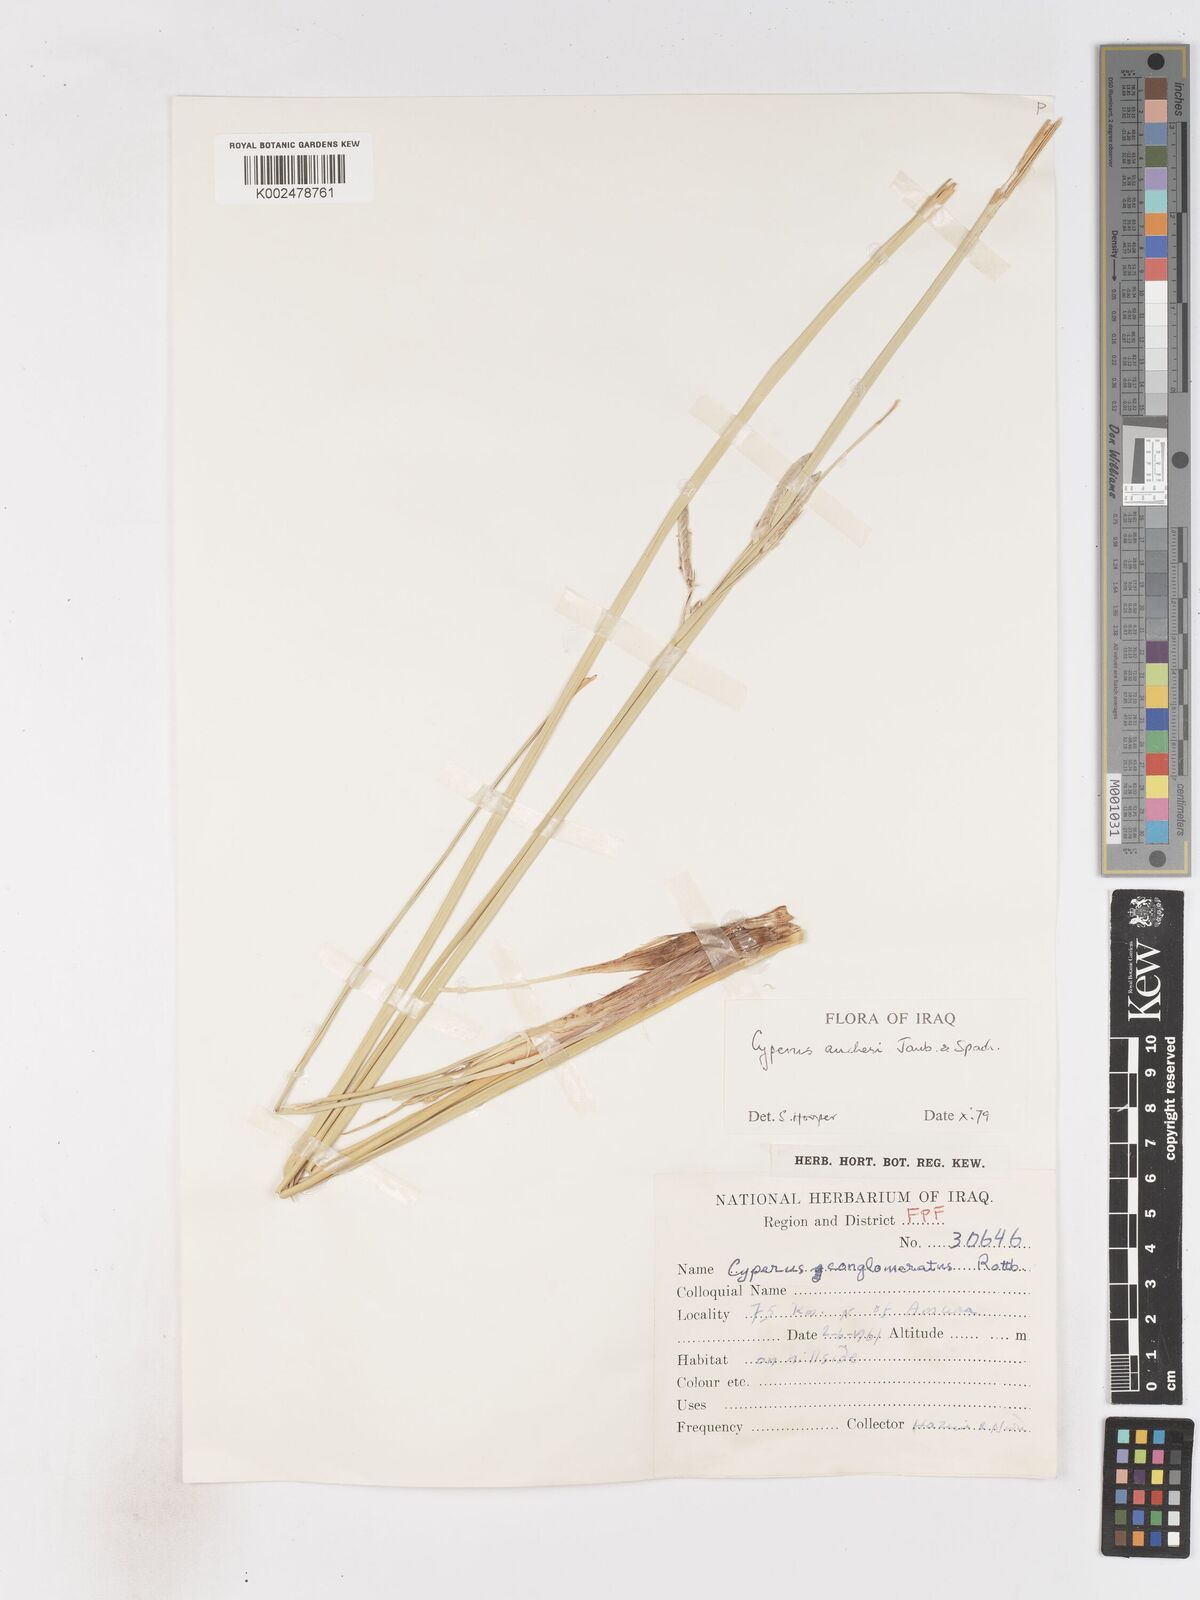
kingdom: Plantae
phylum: Tracheophyta
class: Liliopsida
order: Poales
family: Cyperaceae
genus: Cyperus
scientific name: Cyperus aucheri
